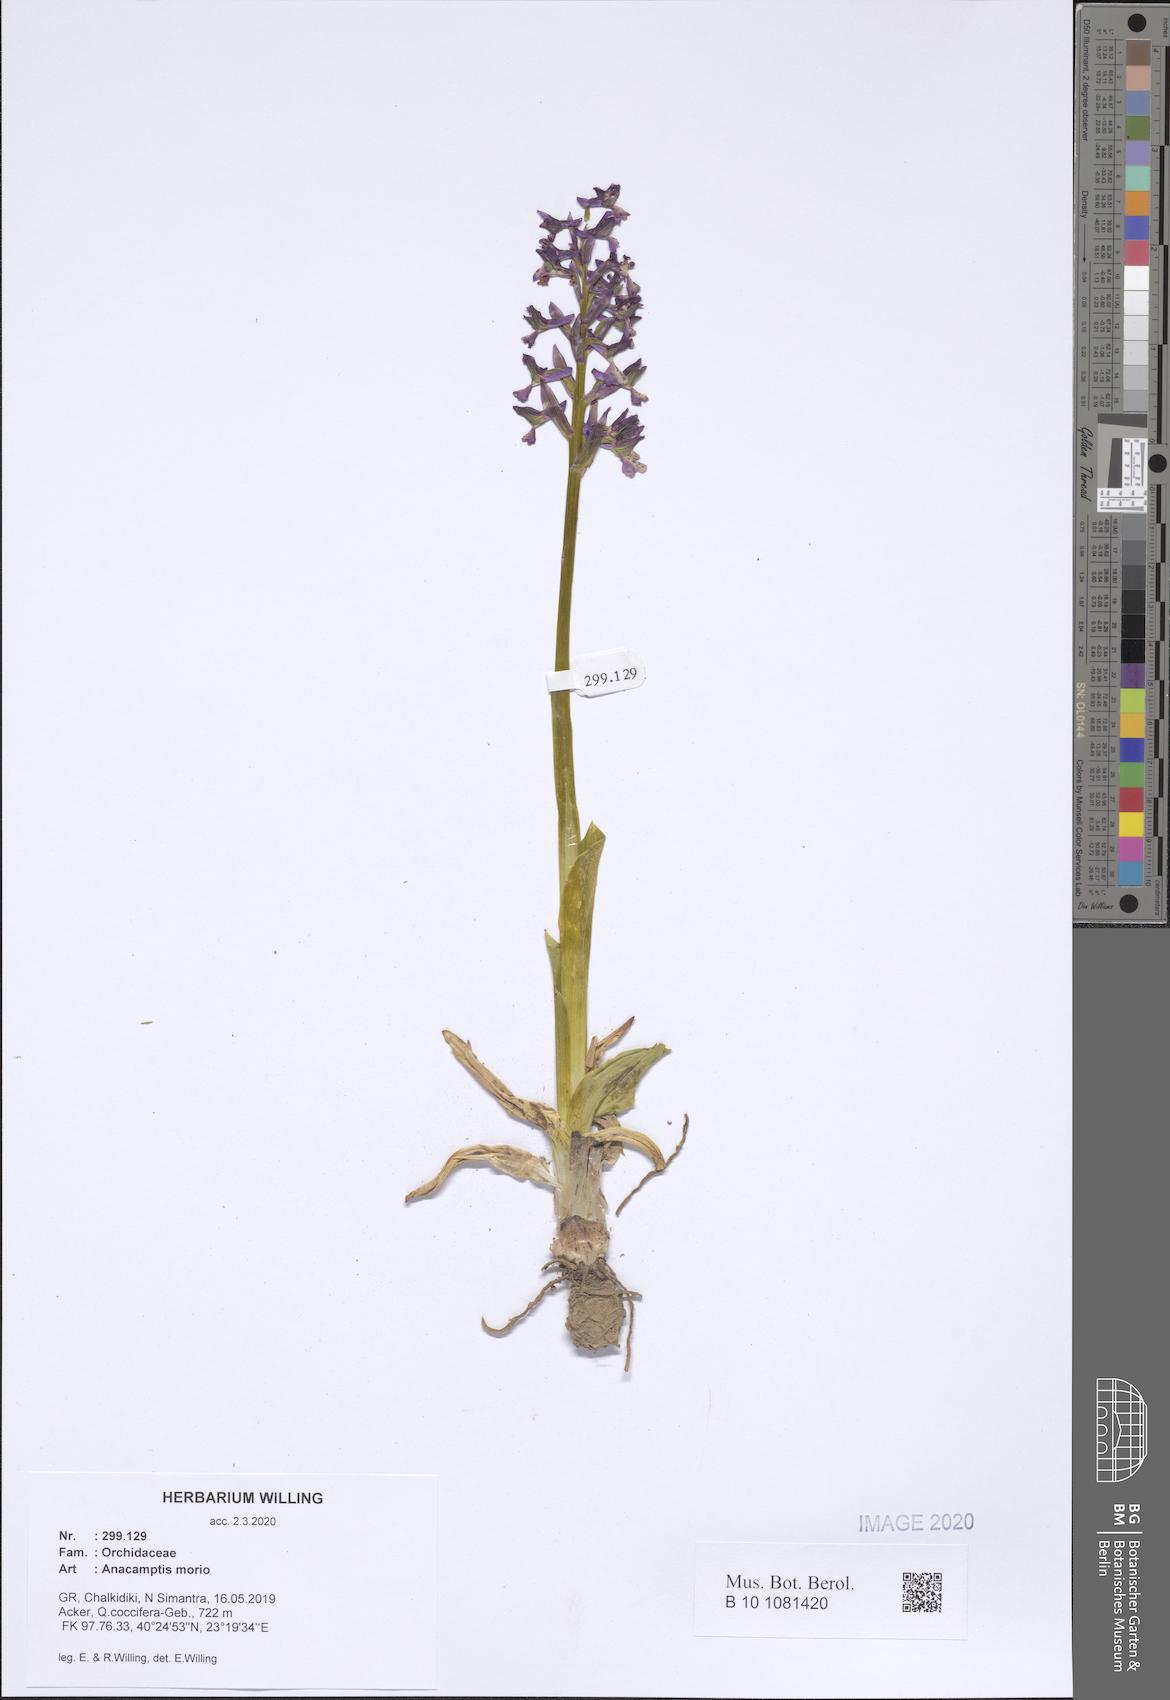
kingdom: Plantae
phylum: Tracheophyta
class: Liliopsida
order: Asparagales
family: Orchidaceae
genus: Anacamptis
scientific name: Anacamptis morio
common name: Green-winged orchid
